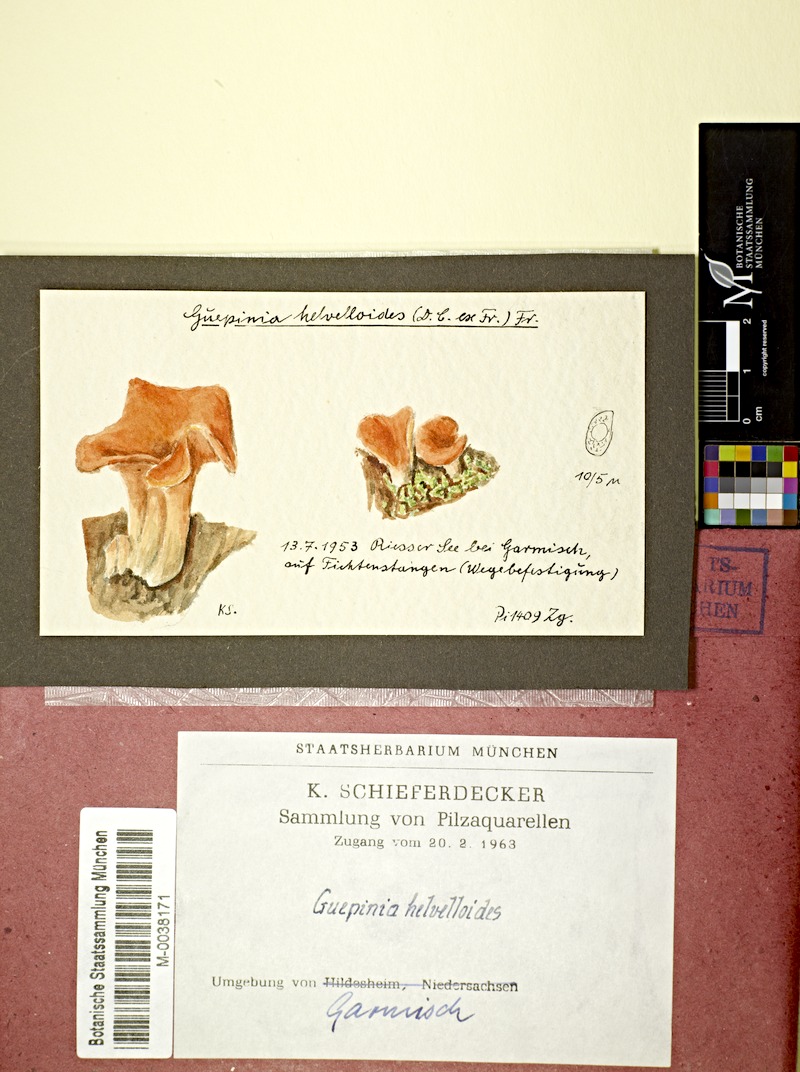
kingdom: Plantae
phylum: Tracheophyta
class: Pinopsida
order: Pinales
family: Pinaceae
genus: Picea
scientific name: Picea
